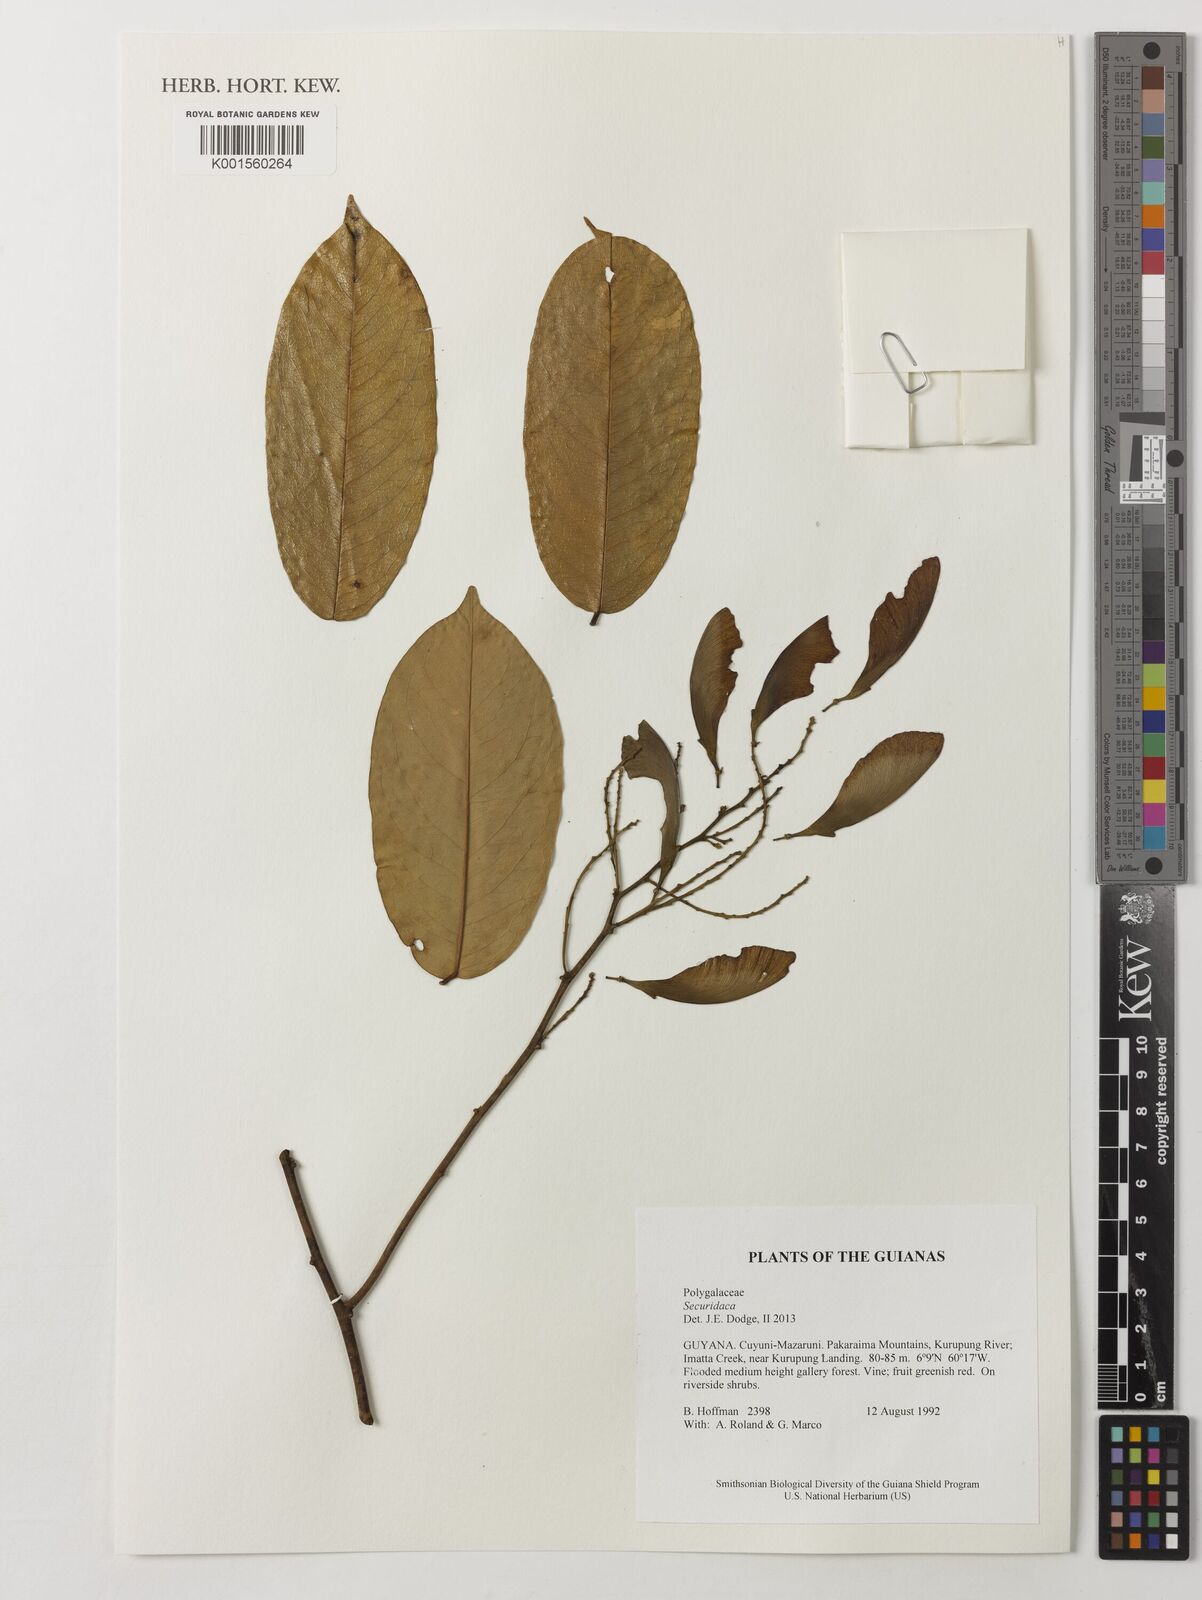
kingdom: Plantae
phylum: Tracheophyta
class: Magnoliopsida
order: Fabales
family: Polygalaceae
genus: Securidaca
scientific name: Securidaca
